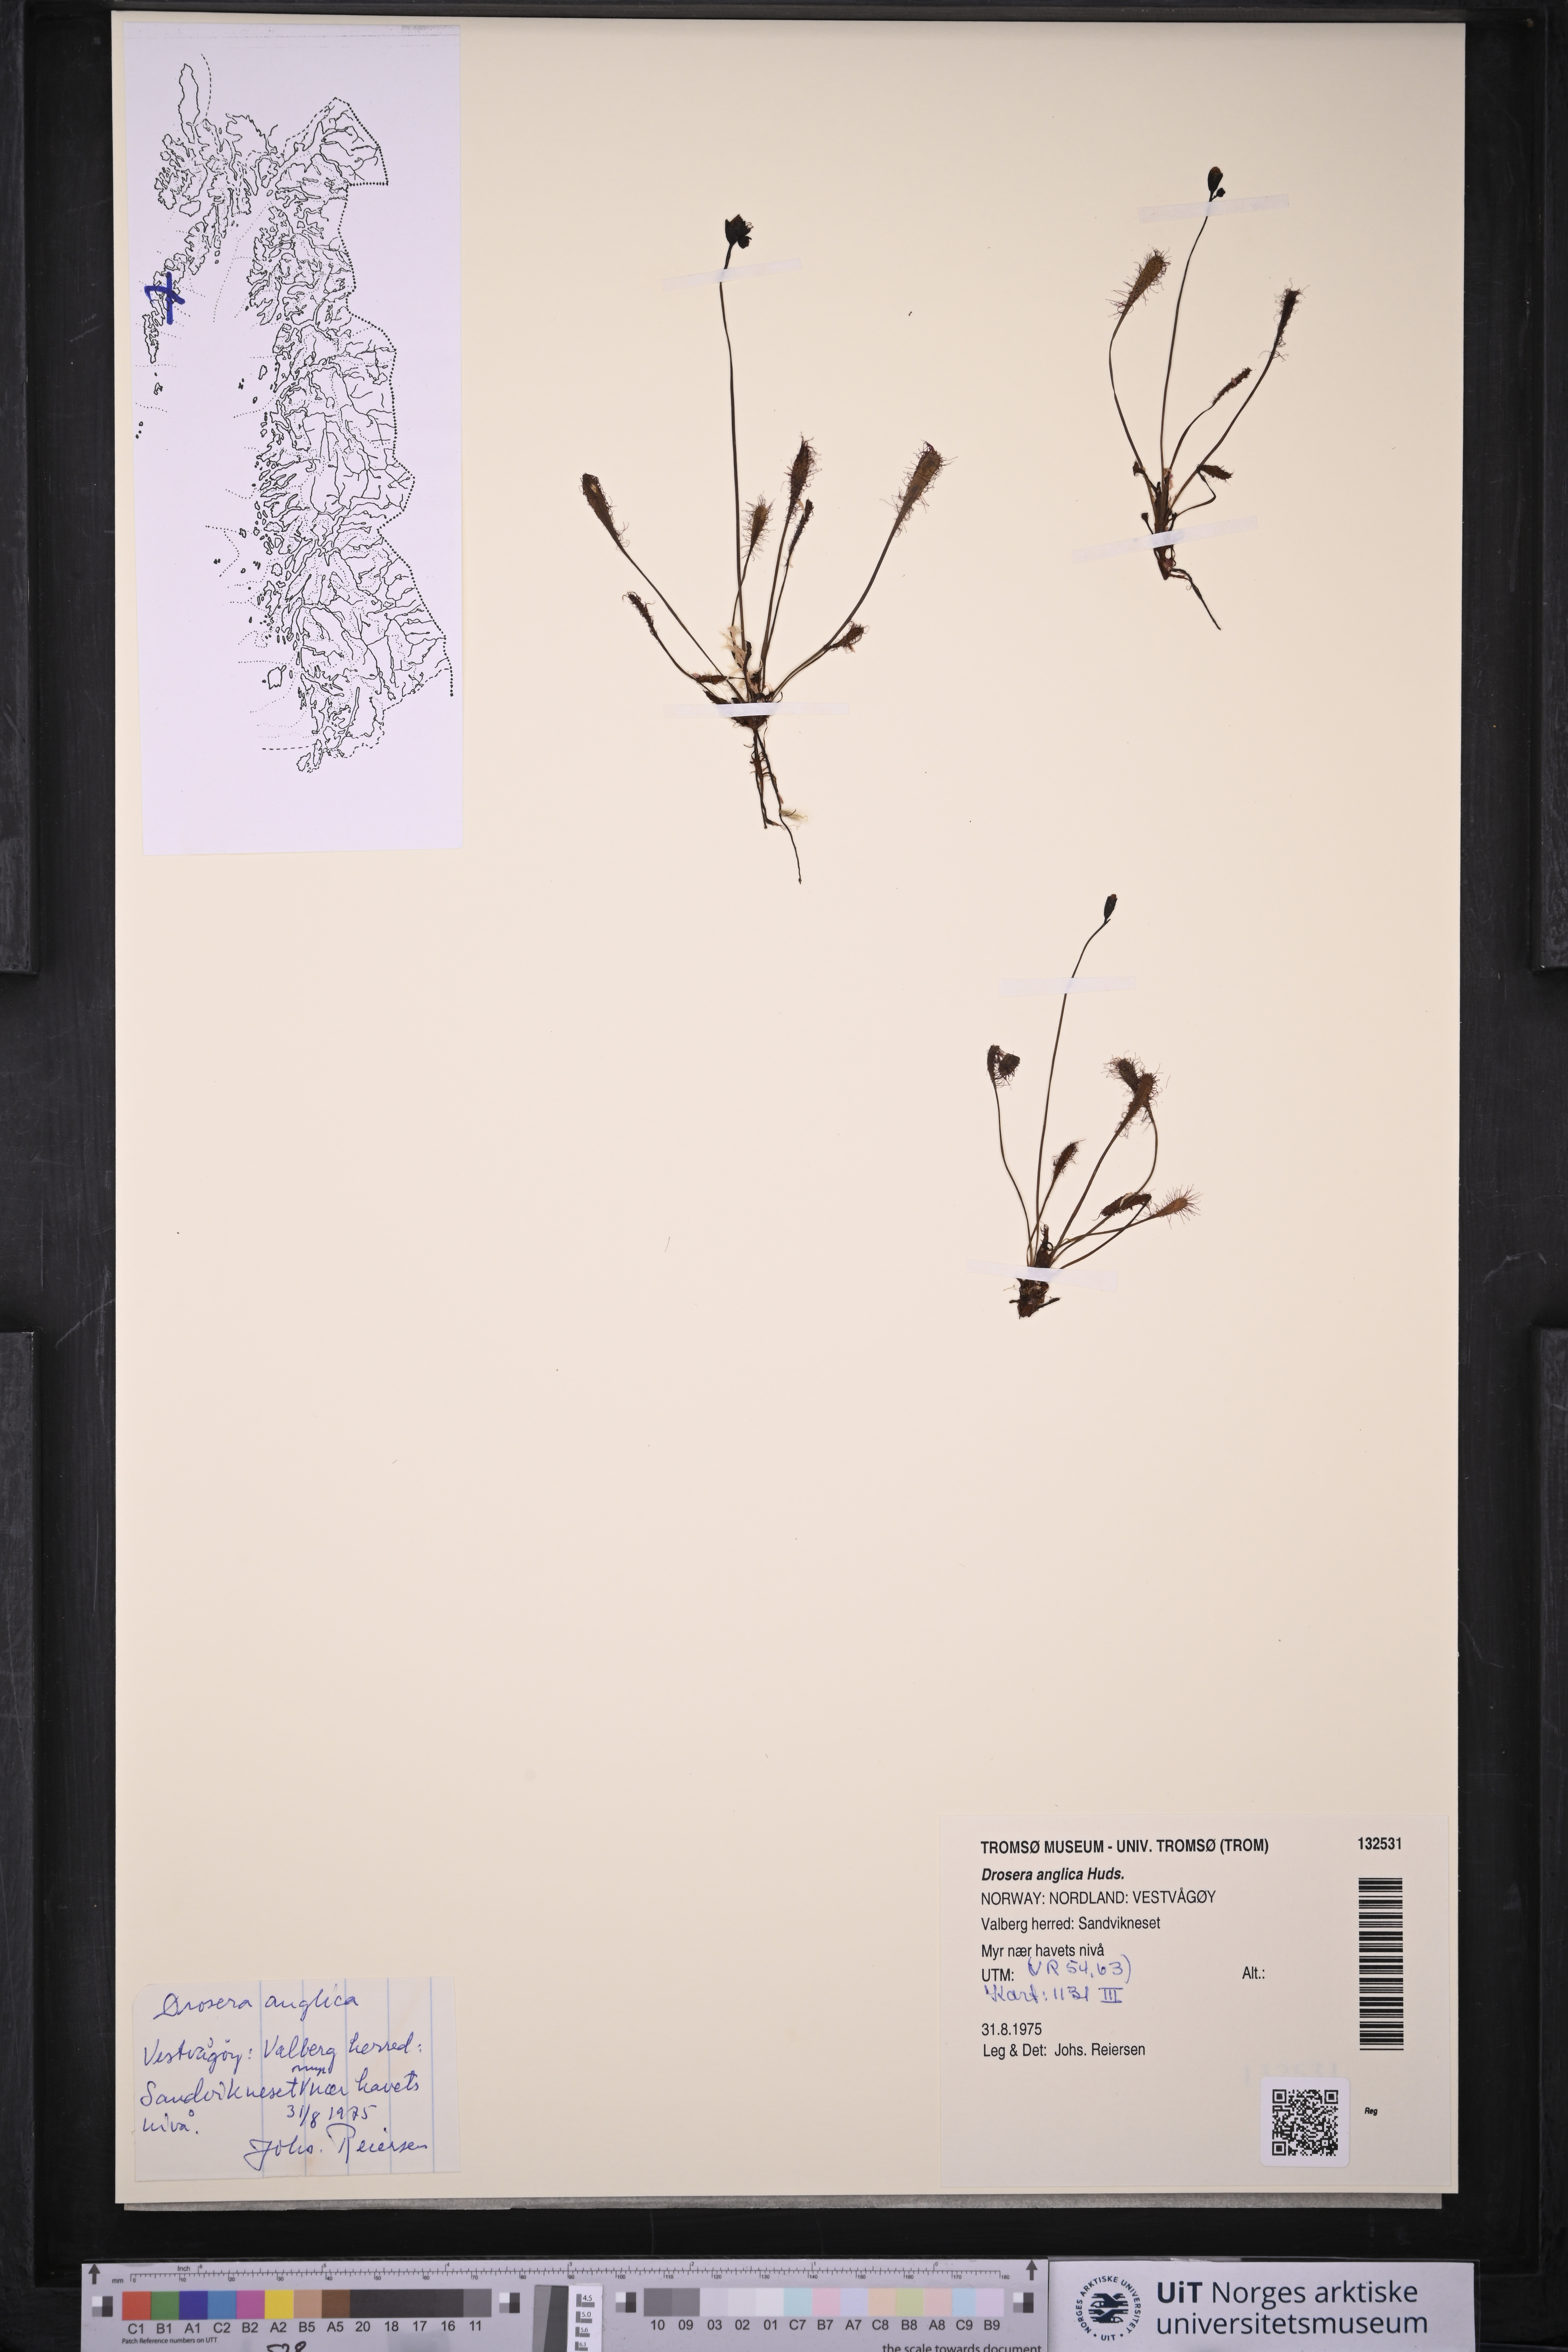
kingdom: Plantae
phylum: Tracheophyta
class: Magnoliopsida
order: Caryophyllales
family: Droseraceae
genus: Drosera
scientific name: Drosera anglica
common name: Great sundew
